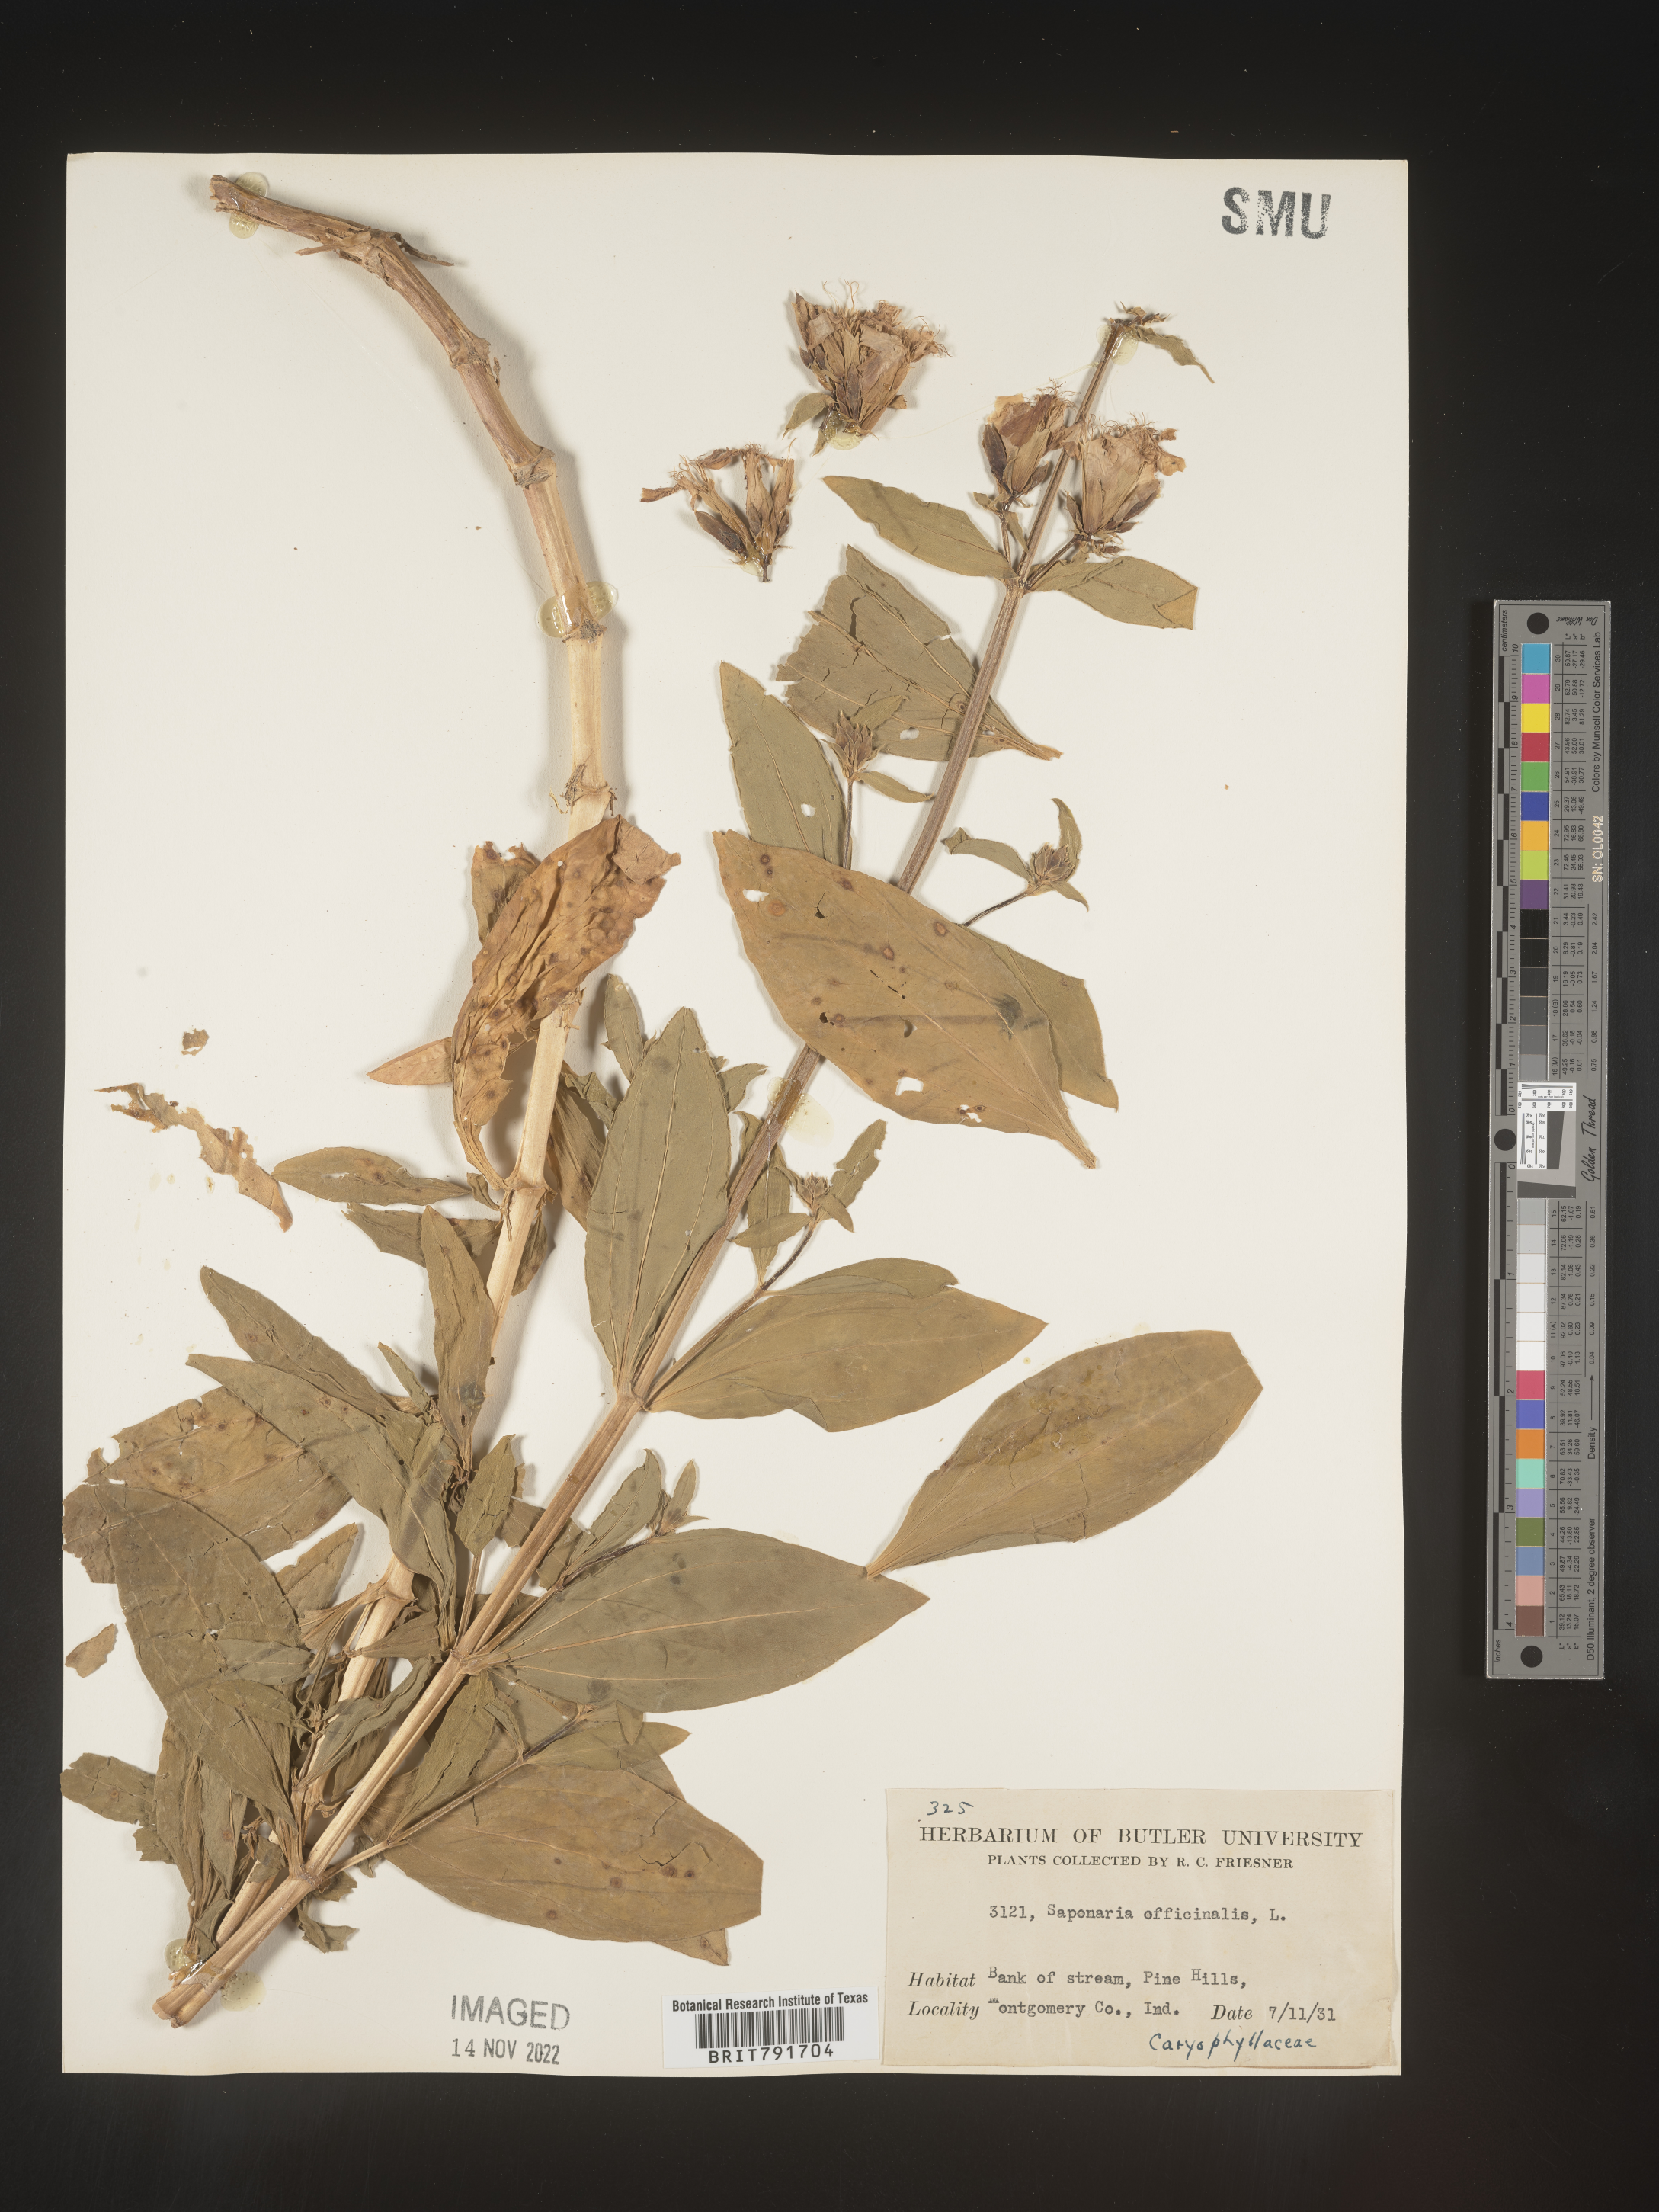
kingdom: Plantae
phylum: Tracheophyta
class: Magnoliopsida
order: Caryophyllales
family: Caryophyllaceae
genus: Saponaria
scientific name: Saponaria officinalis
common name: Soapwort
